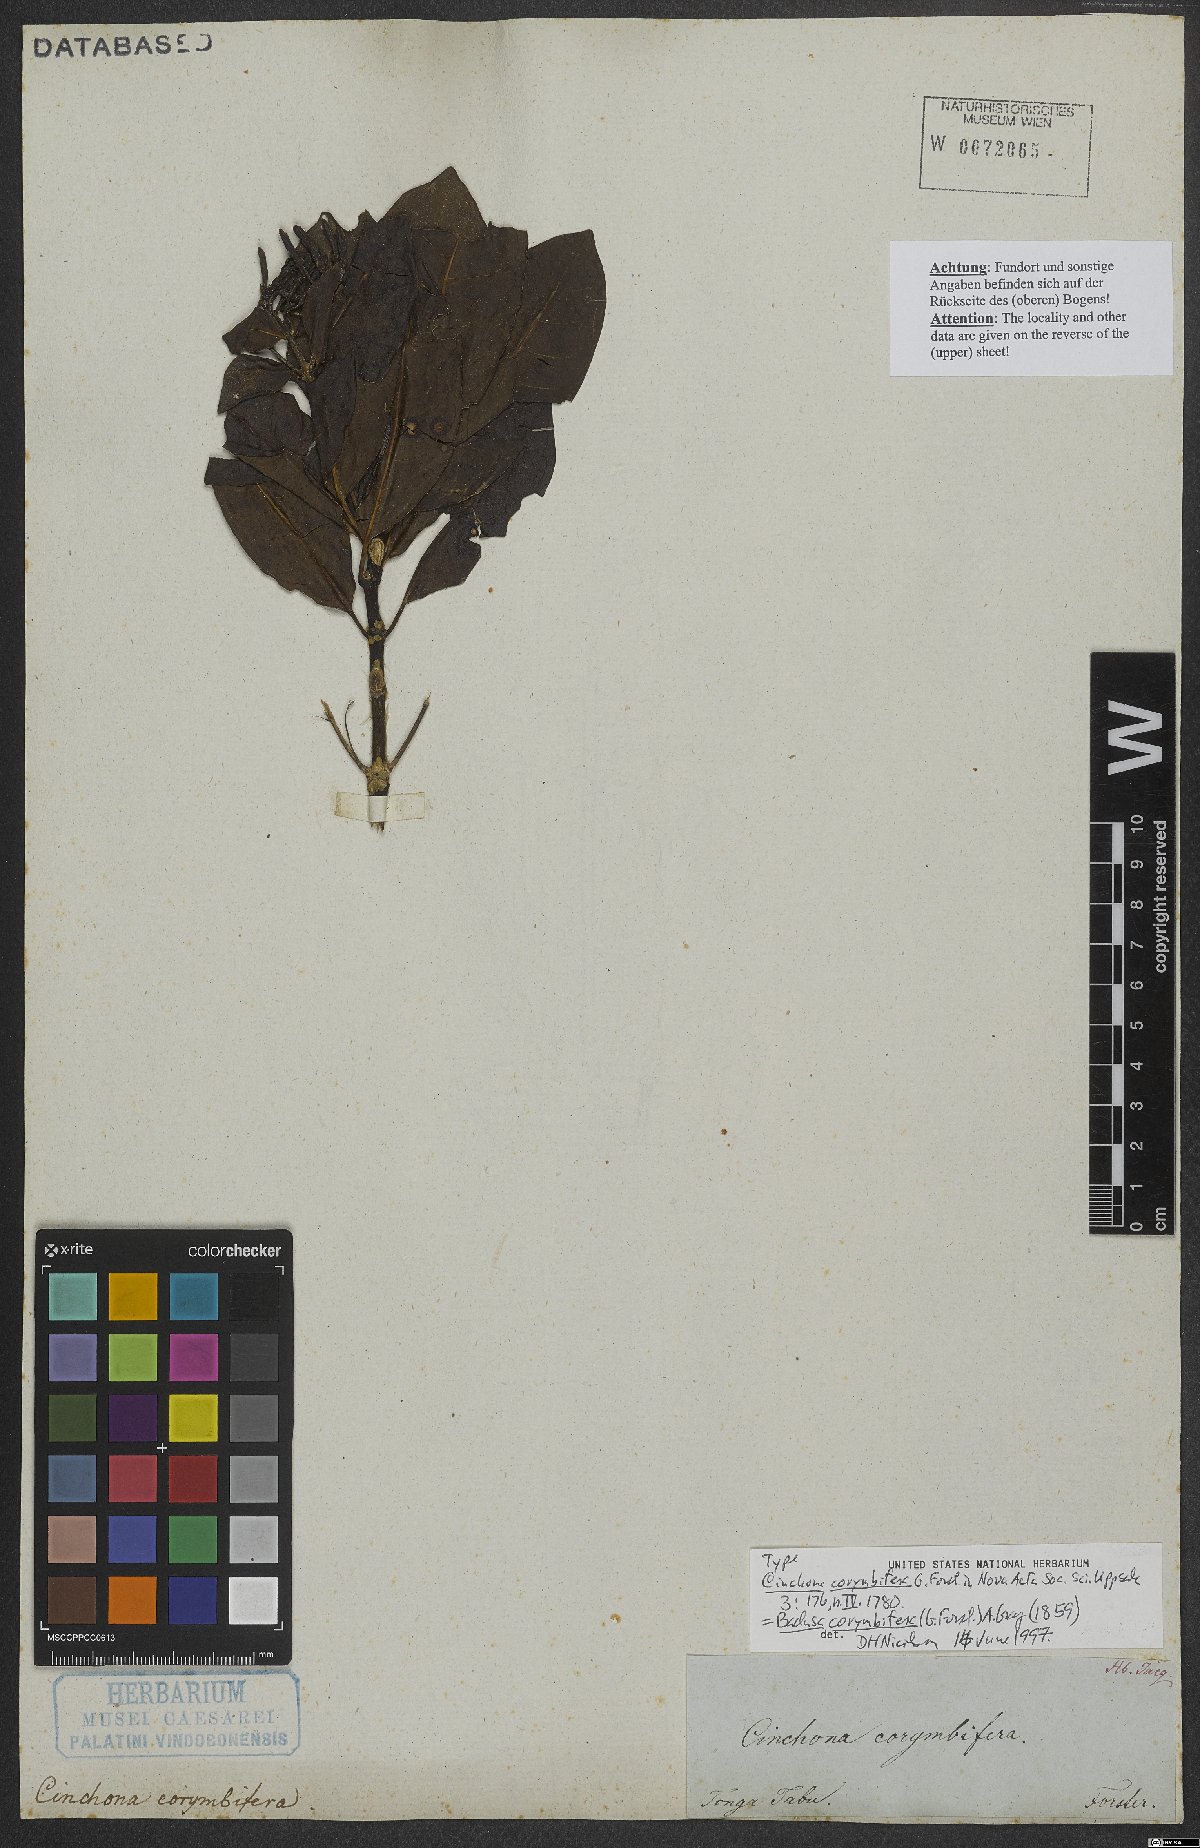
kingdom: Plantae
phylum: Tracheophyta
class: Magnoliopsida
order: Gentianales
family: Rubiaceae
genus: Badusa
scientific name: Badusa corymbifera
